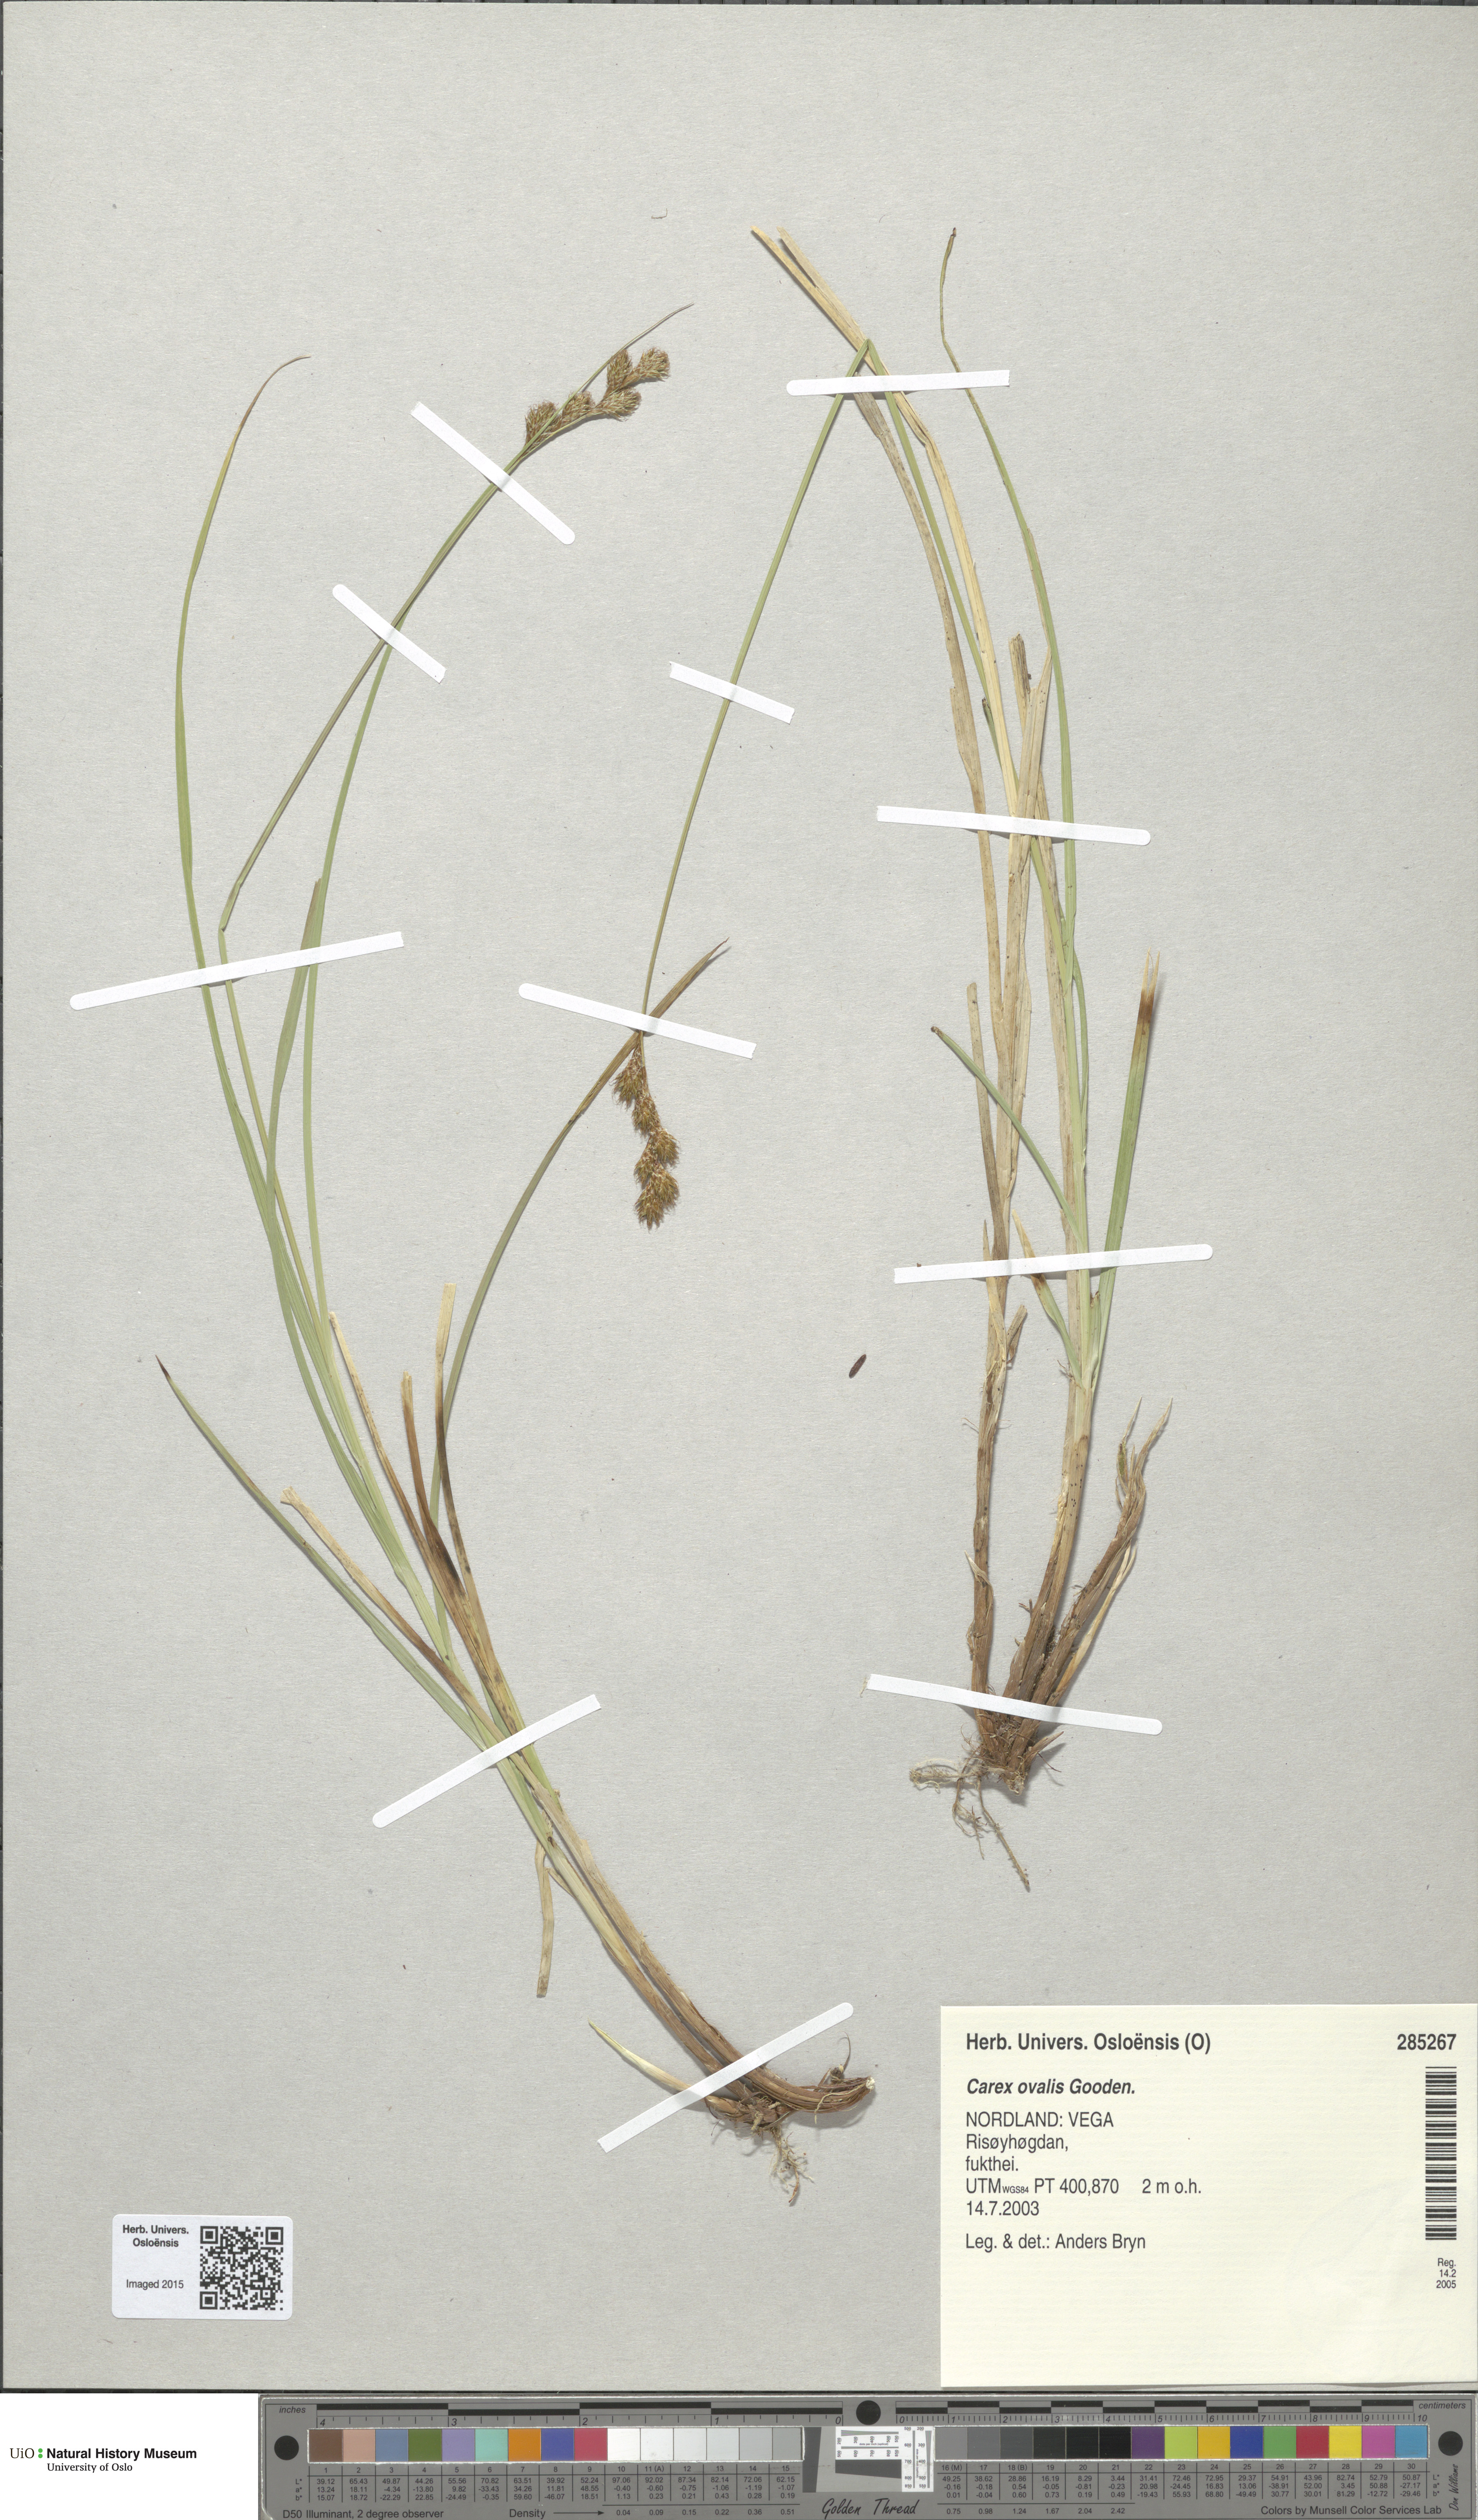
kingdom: Plantae
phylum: Tracheophyta
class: Liliopsida
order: Poales
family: Cyperaceae
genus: Carex
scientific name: Carex leporina
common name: Oval sedge
